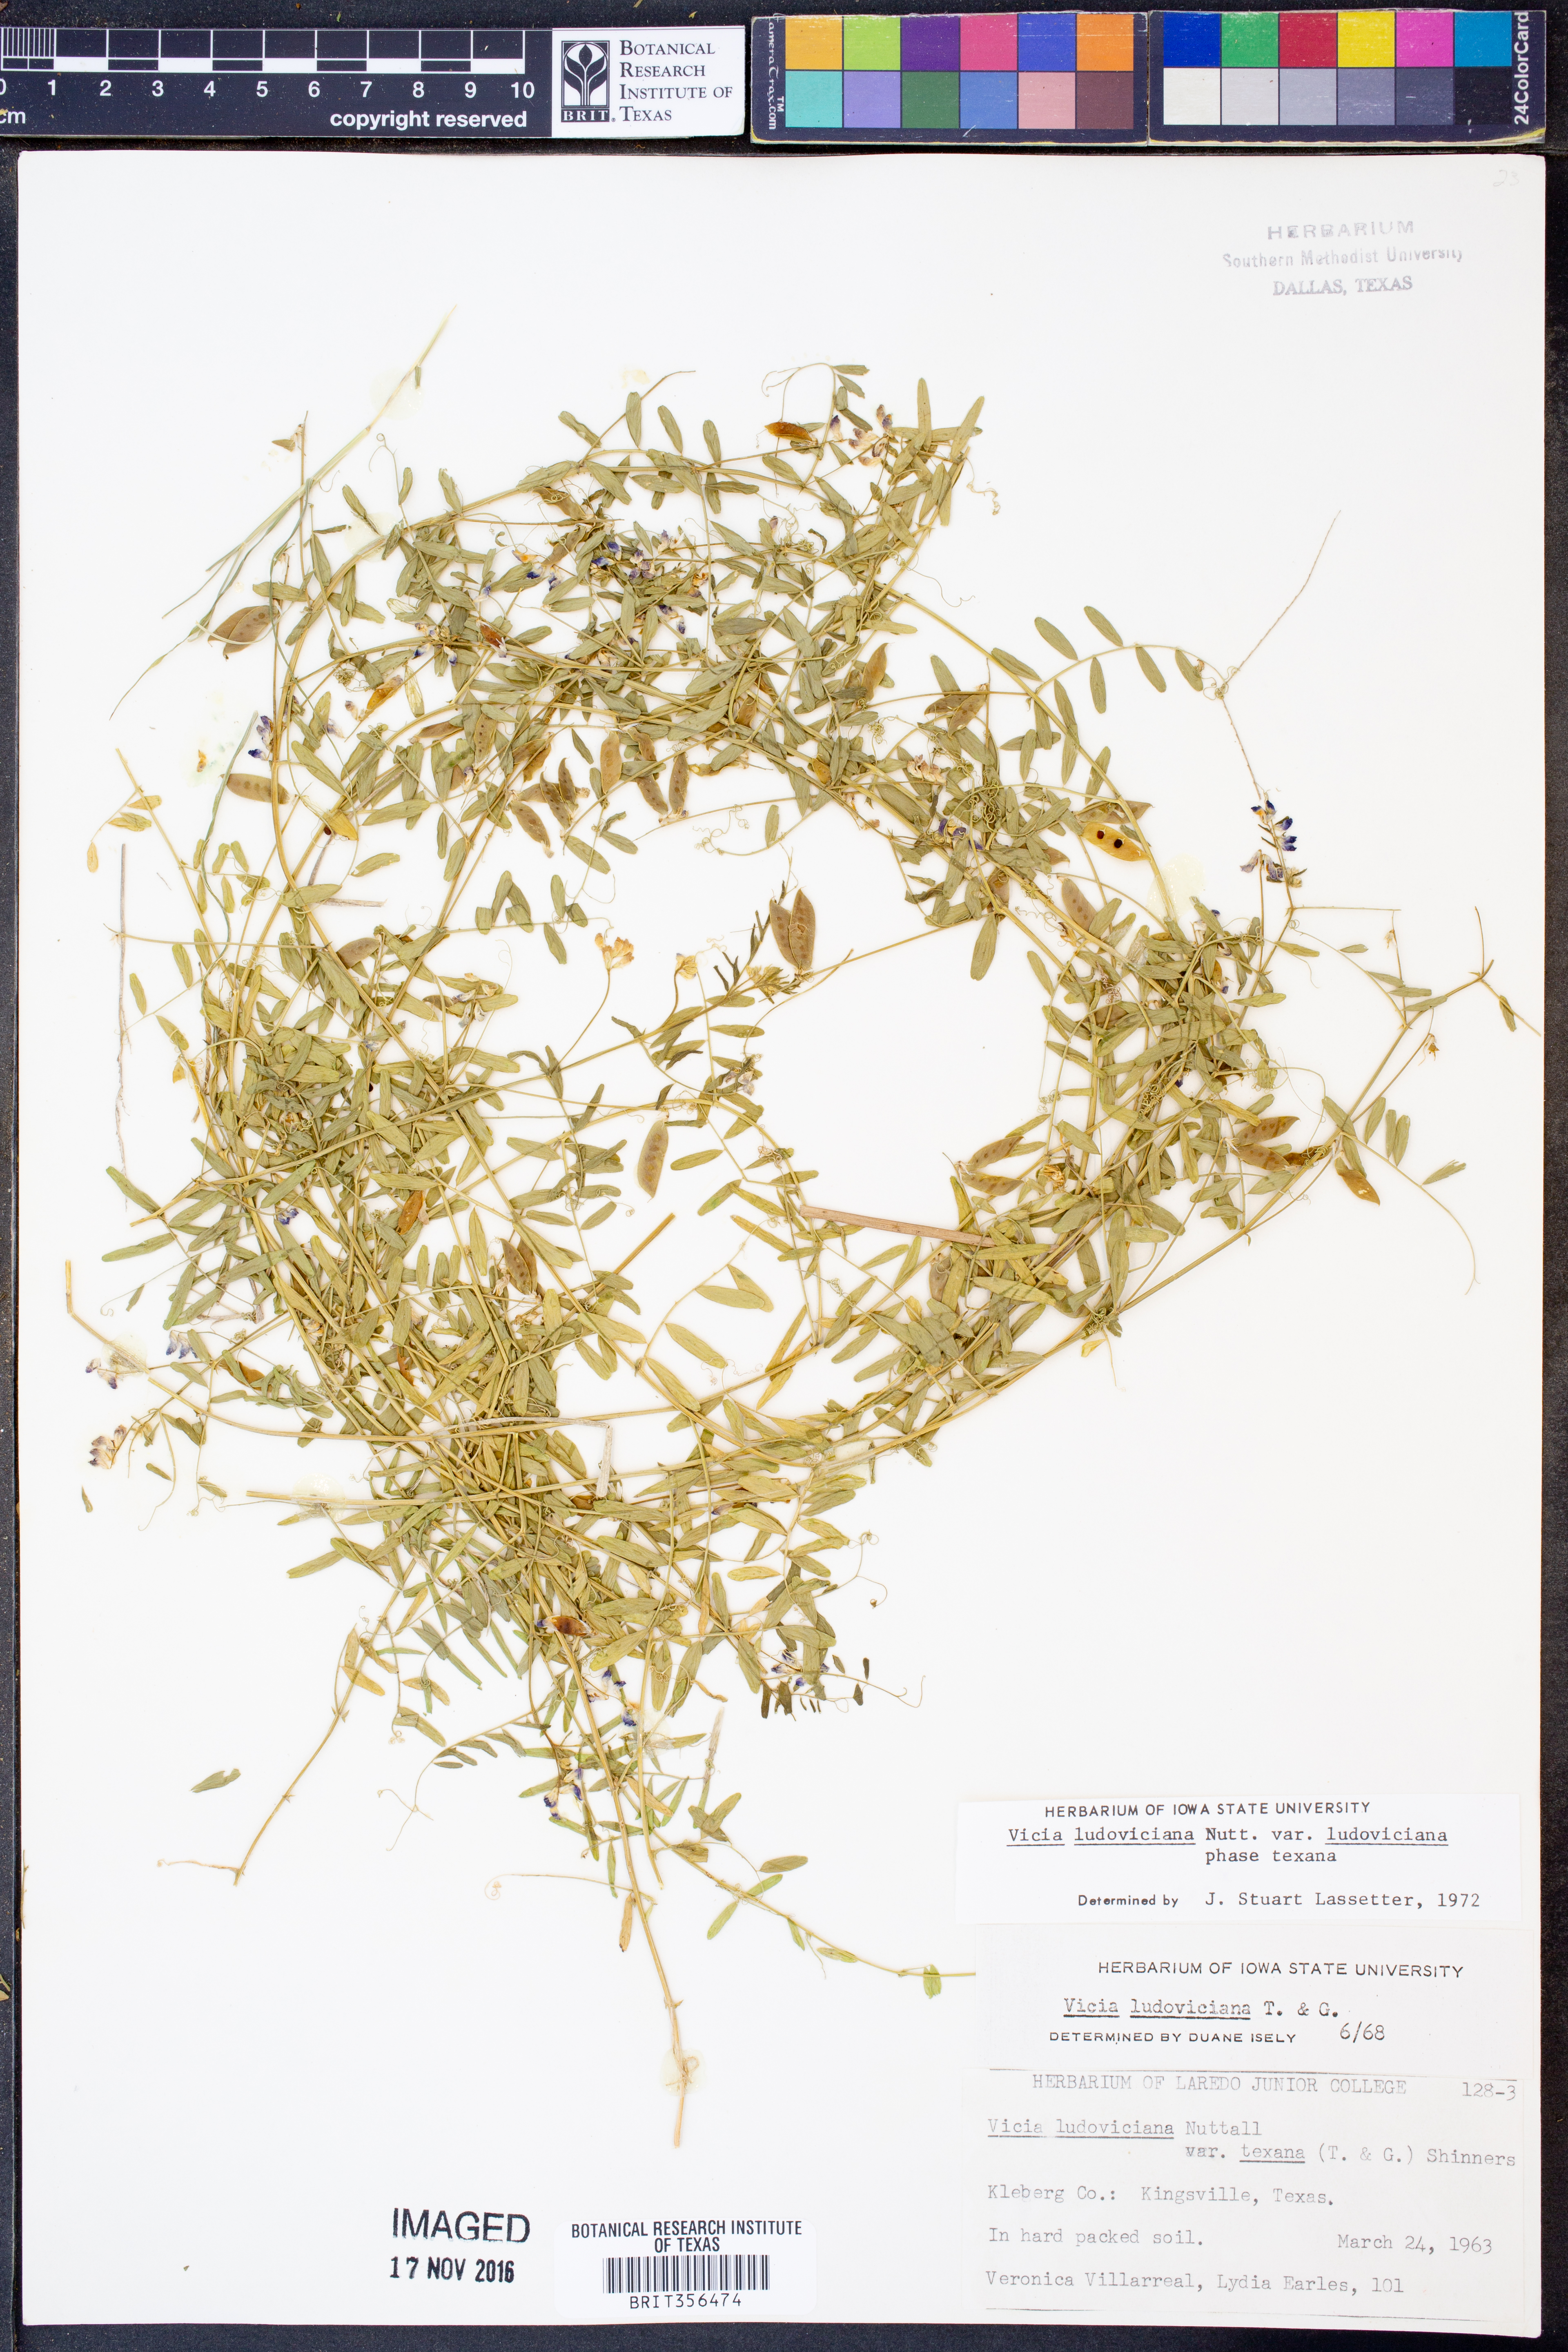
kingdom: Plantae
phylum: Tracheophyta
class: Magnoliopsida
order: Fabales
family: Fabaceae
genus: Vicia
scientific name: Vicia ludoviciana
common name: Louisiana vetch
